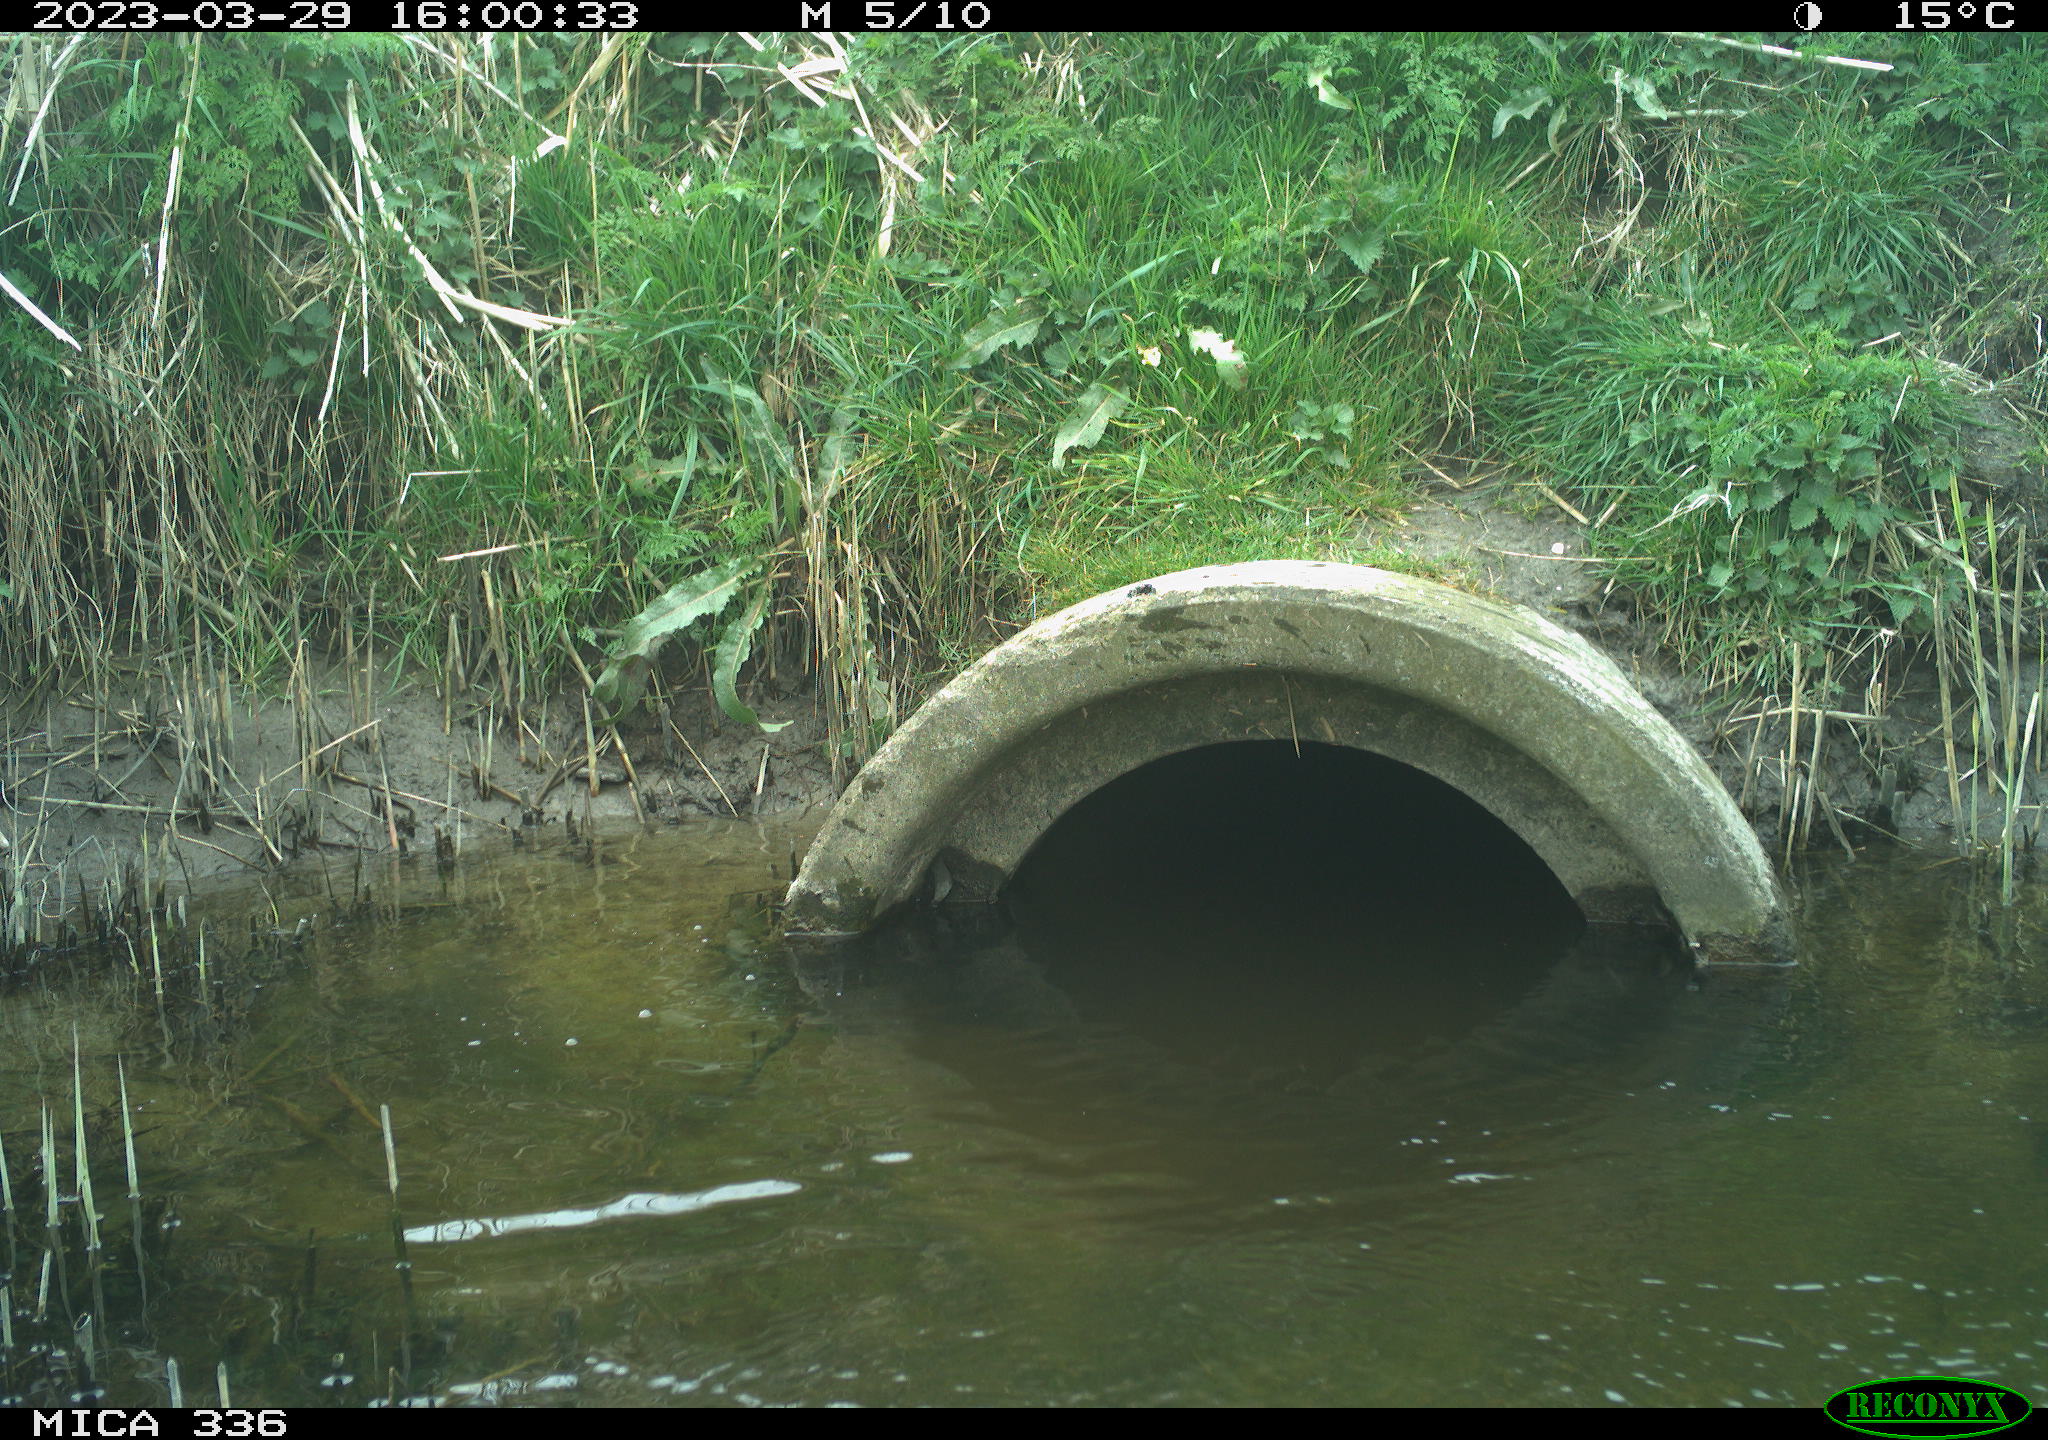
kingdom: Animalia
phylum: Chordata
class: Aves
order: Pelecaniformes
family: Ardeidae
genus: Ardea
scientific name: Ardea
